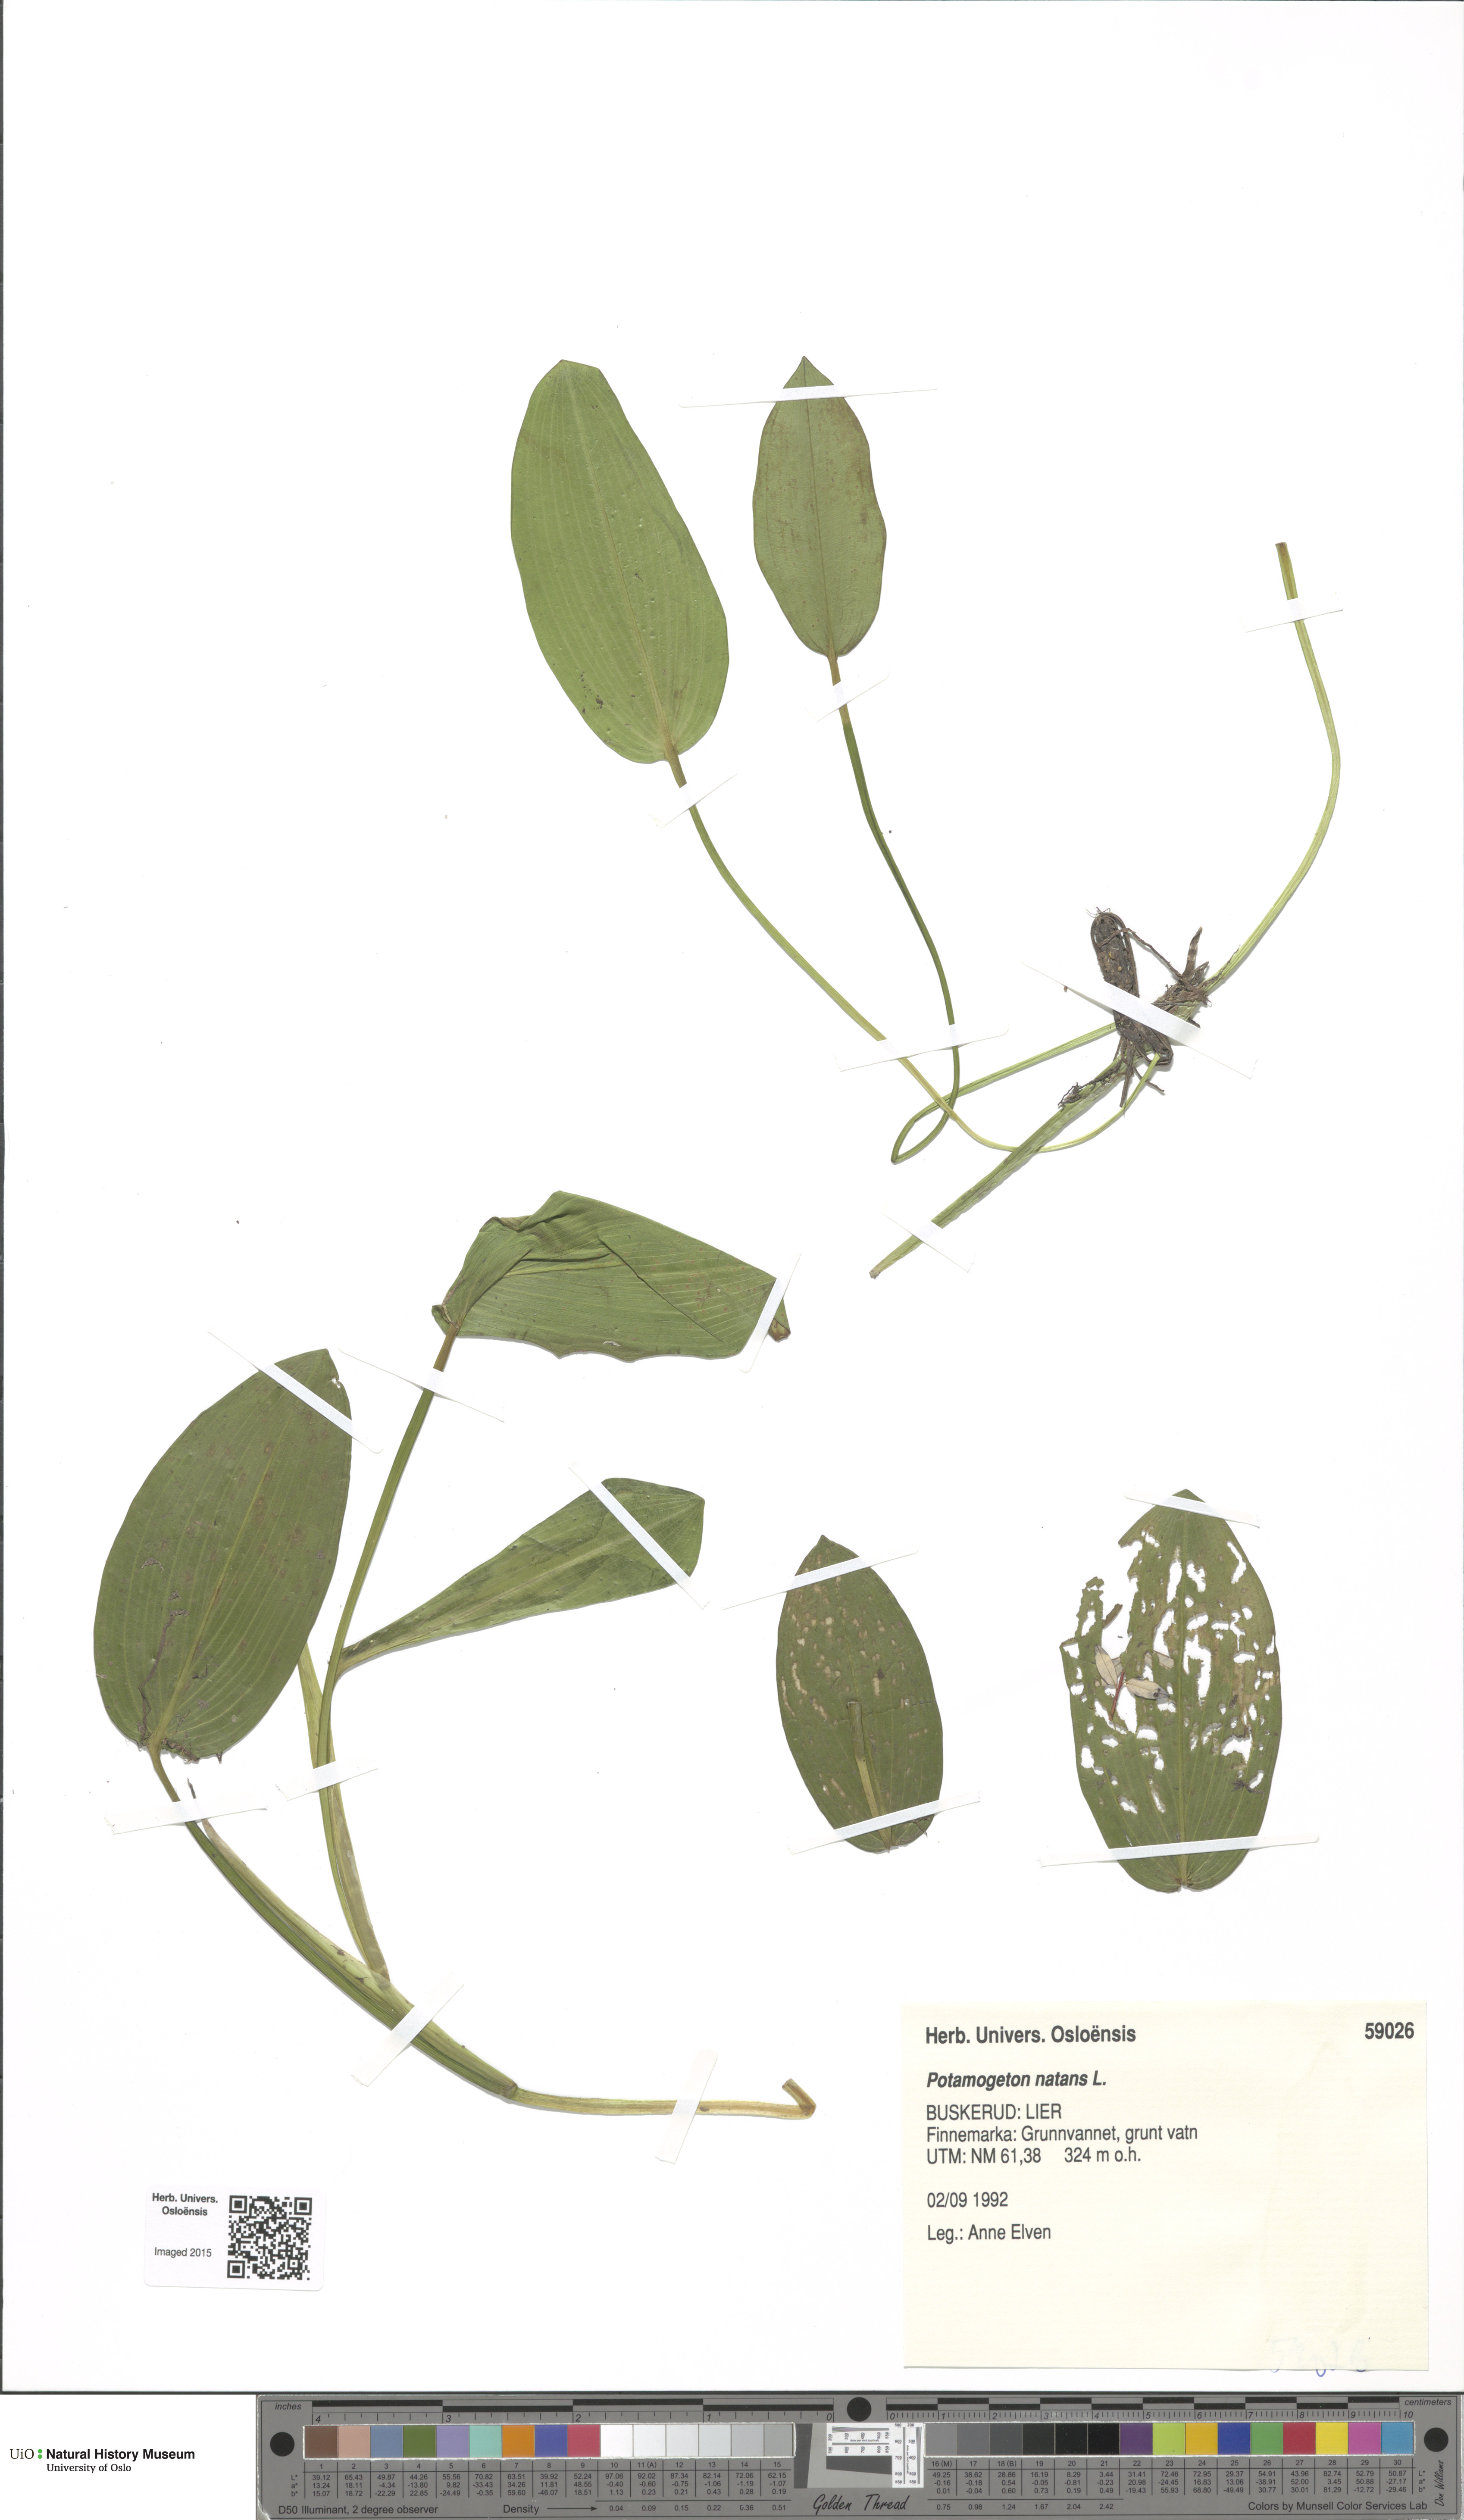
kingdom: Plantae
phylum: Tracheophyta
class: Liliopsida
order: Alismatales
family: Potamogetonaceae
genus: Potamogeton
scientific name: Potamogeton natans
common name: Broad-leaved pondweed
